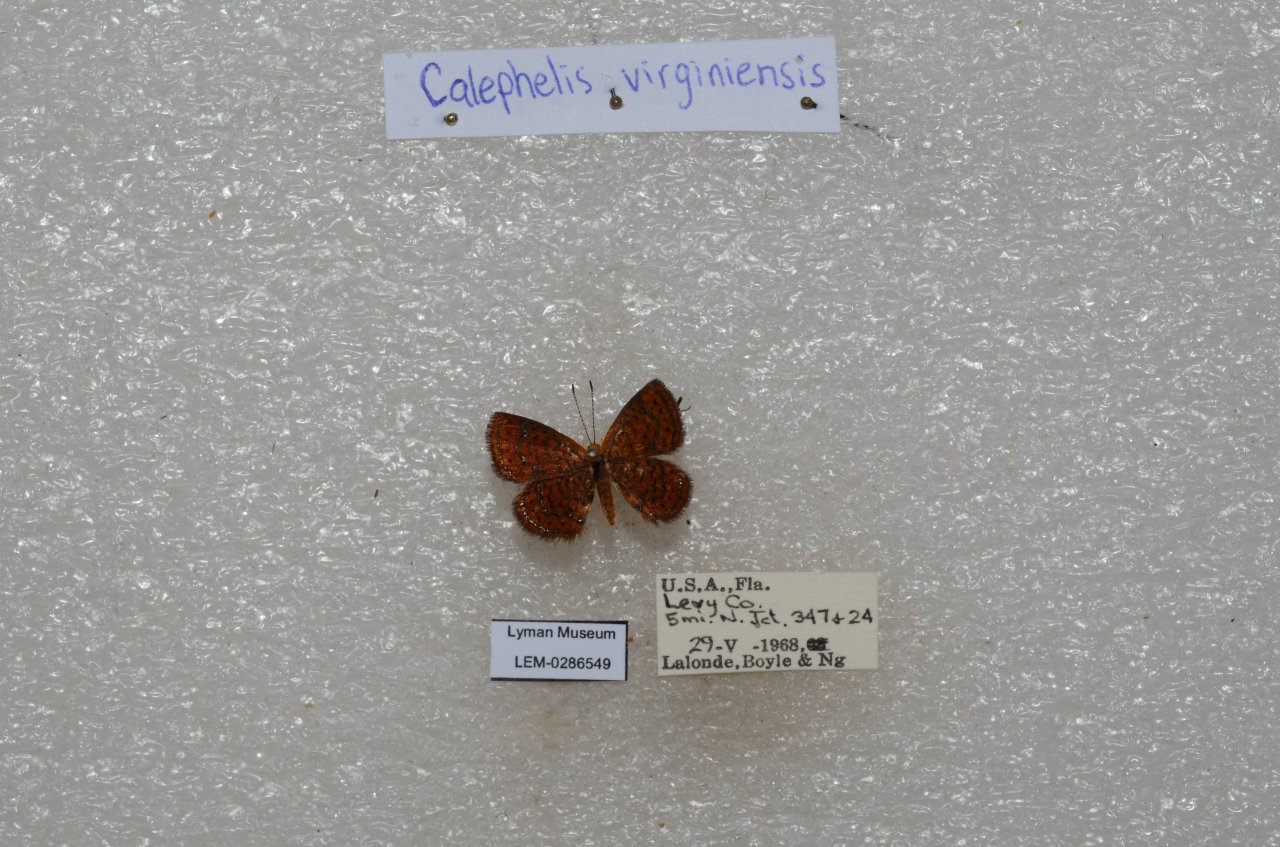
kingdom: Animalia
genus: Calephelis
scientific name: Calephelis virginiensis
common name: Little Metalmark
